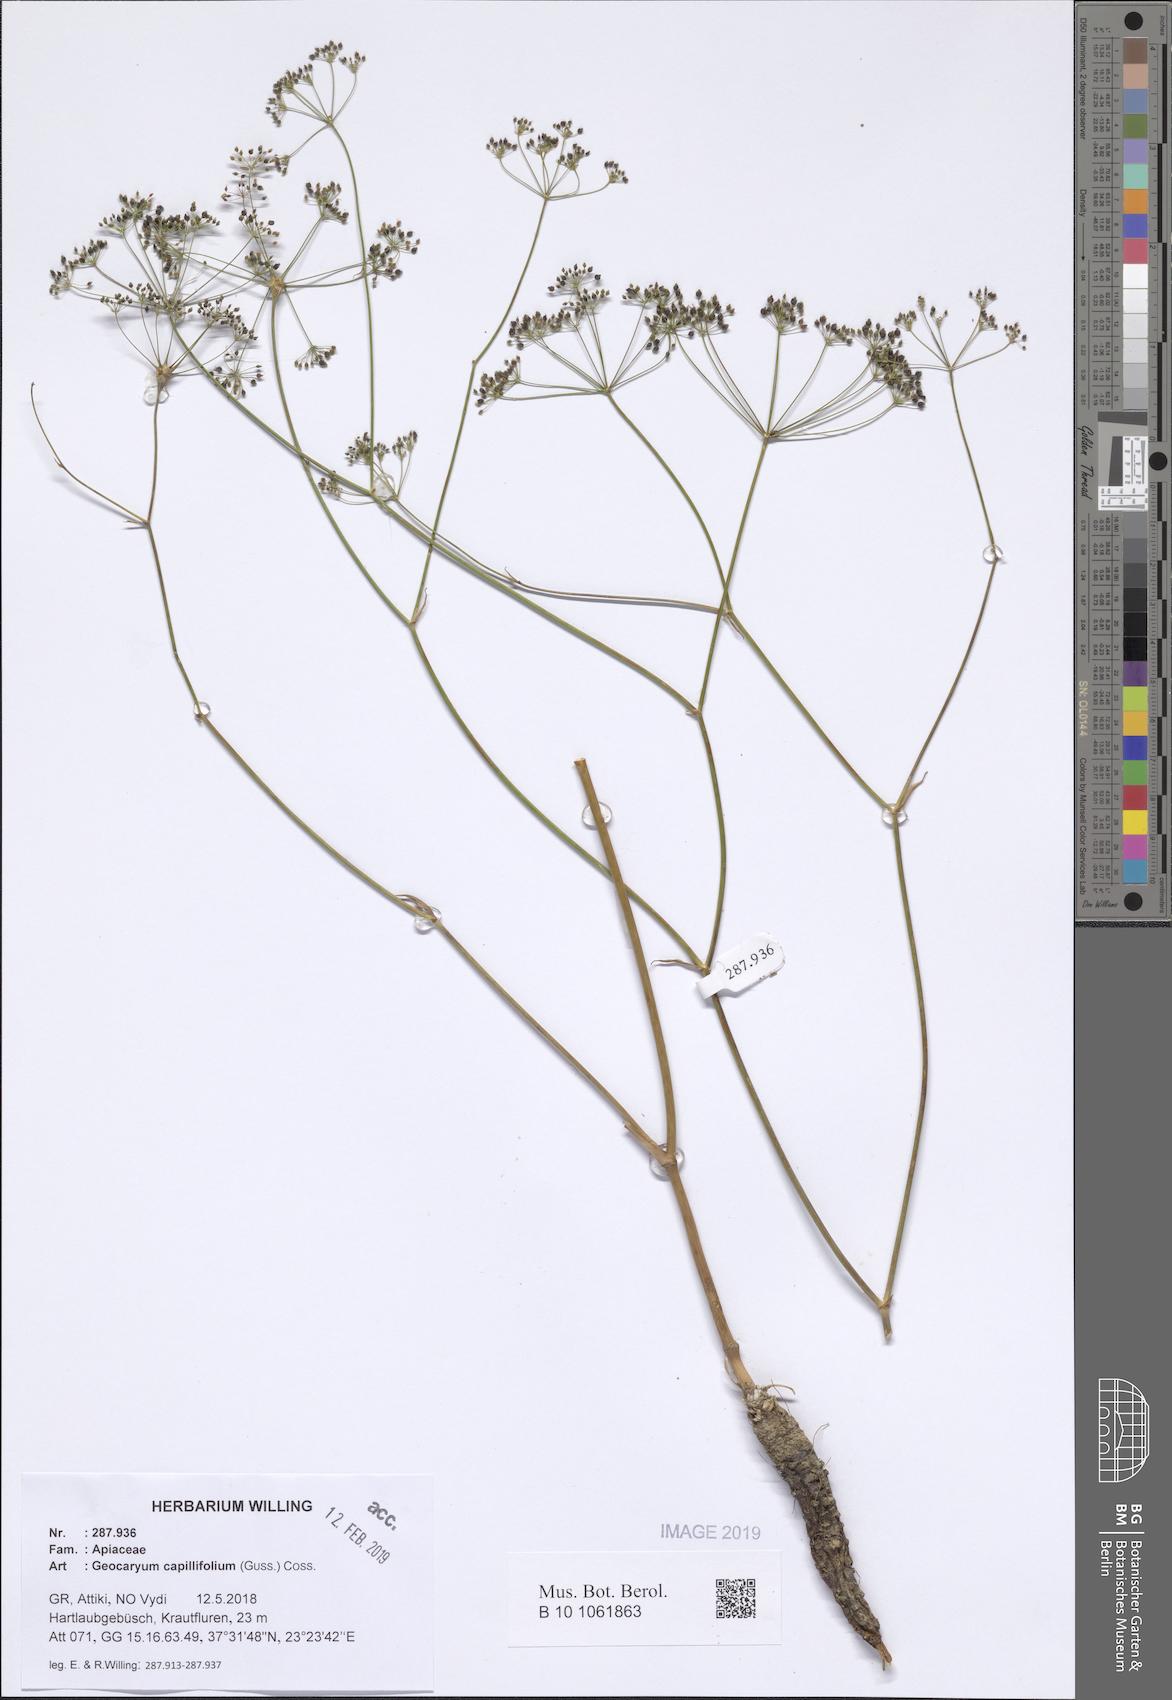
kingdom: Plantae
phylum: Tracheophyta
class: Magnoliopsida
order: Apiales
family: Apiaceae
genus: Geocaryum
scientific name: Geocaryum capillifolium
